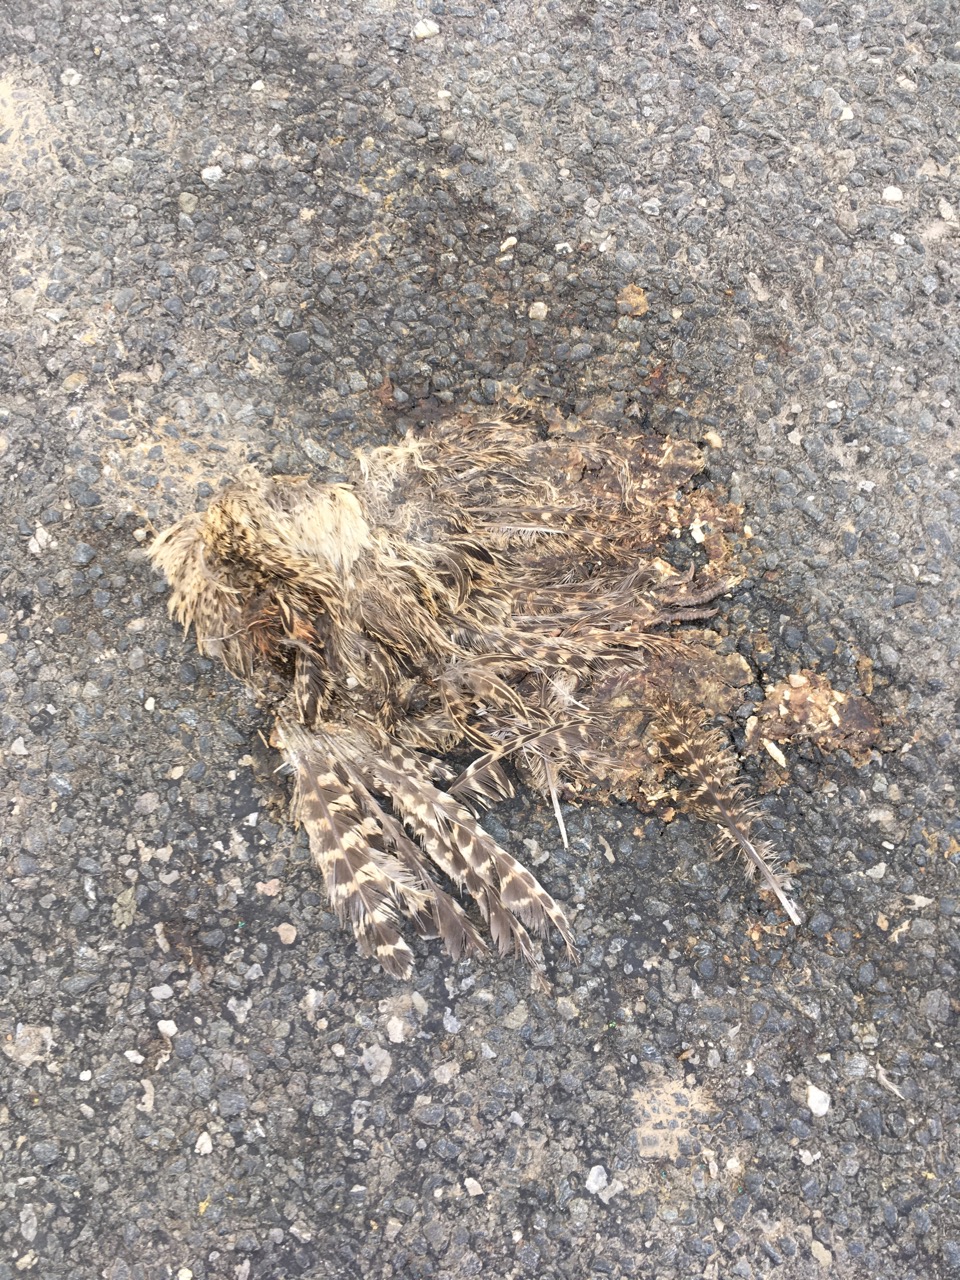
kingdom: Animalia
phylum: Chordata
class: Aves
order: Galliformes
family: Phasianidae
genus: Phasianus
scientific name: Phasianus colchicus
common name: Common pheasant
